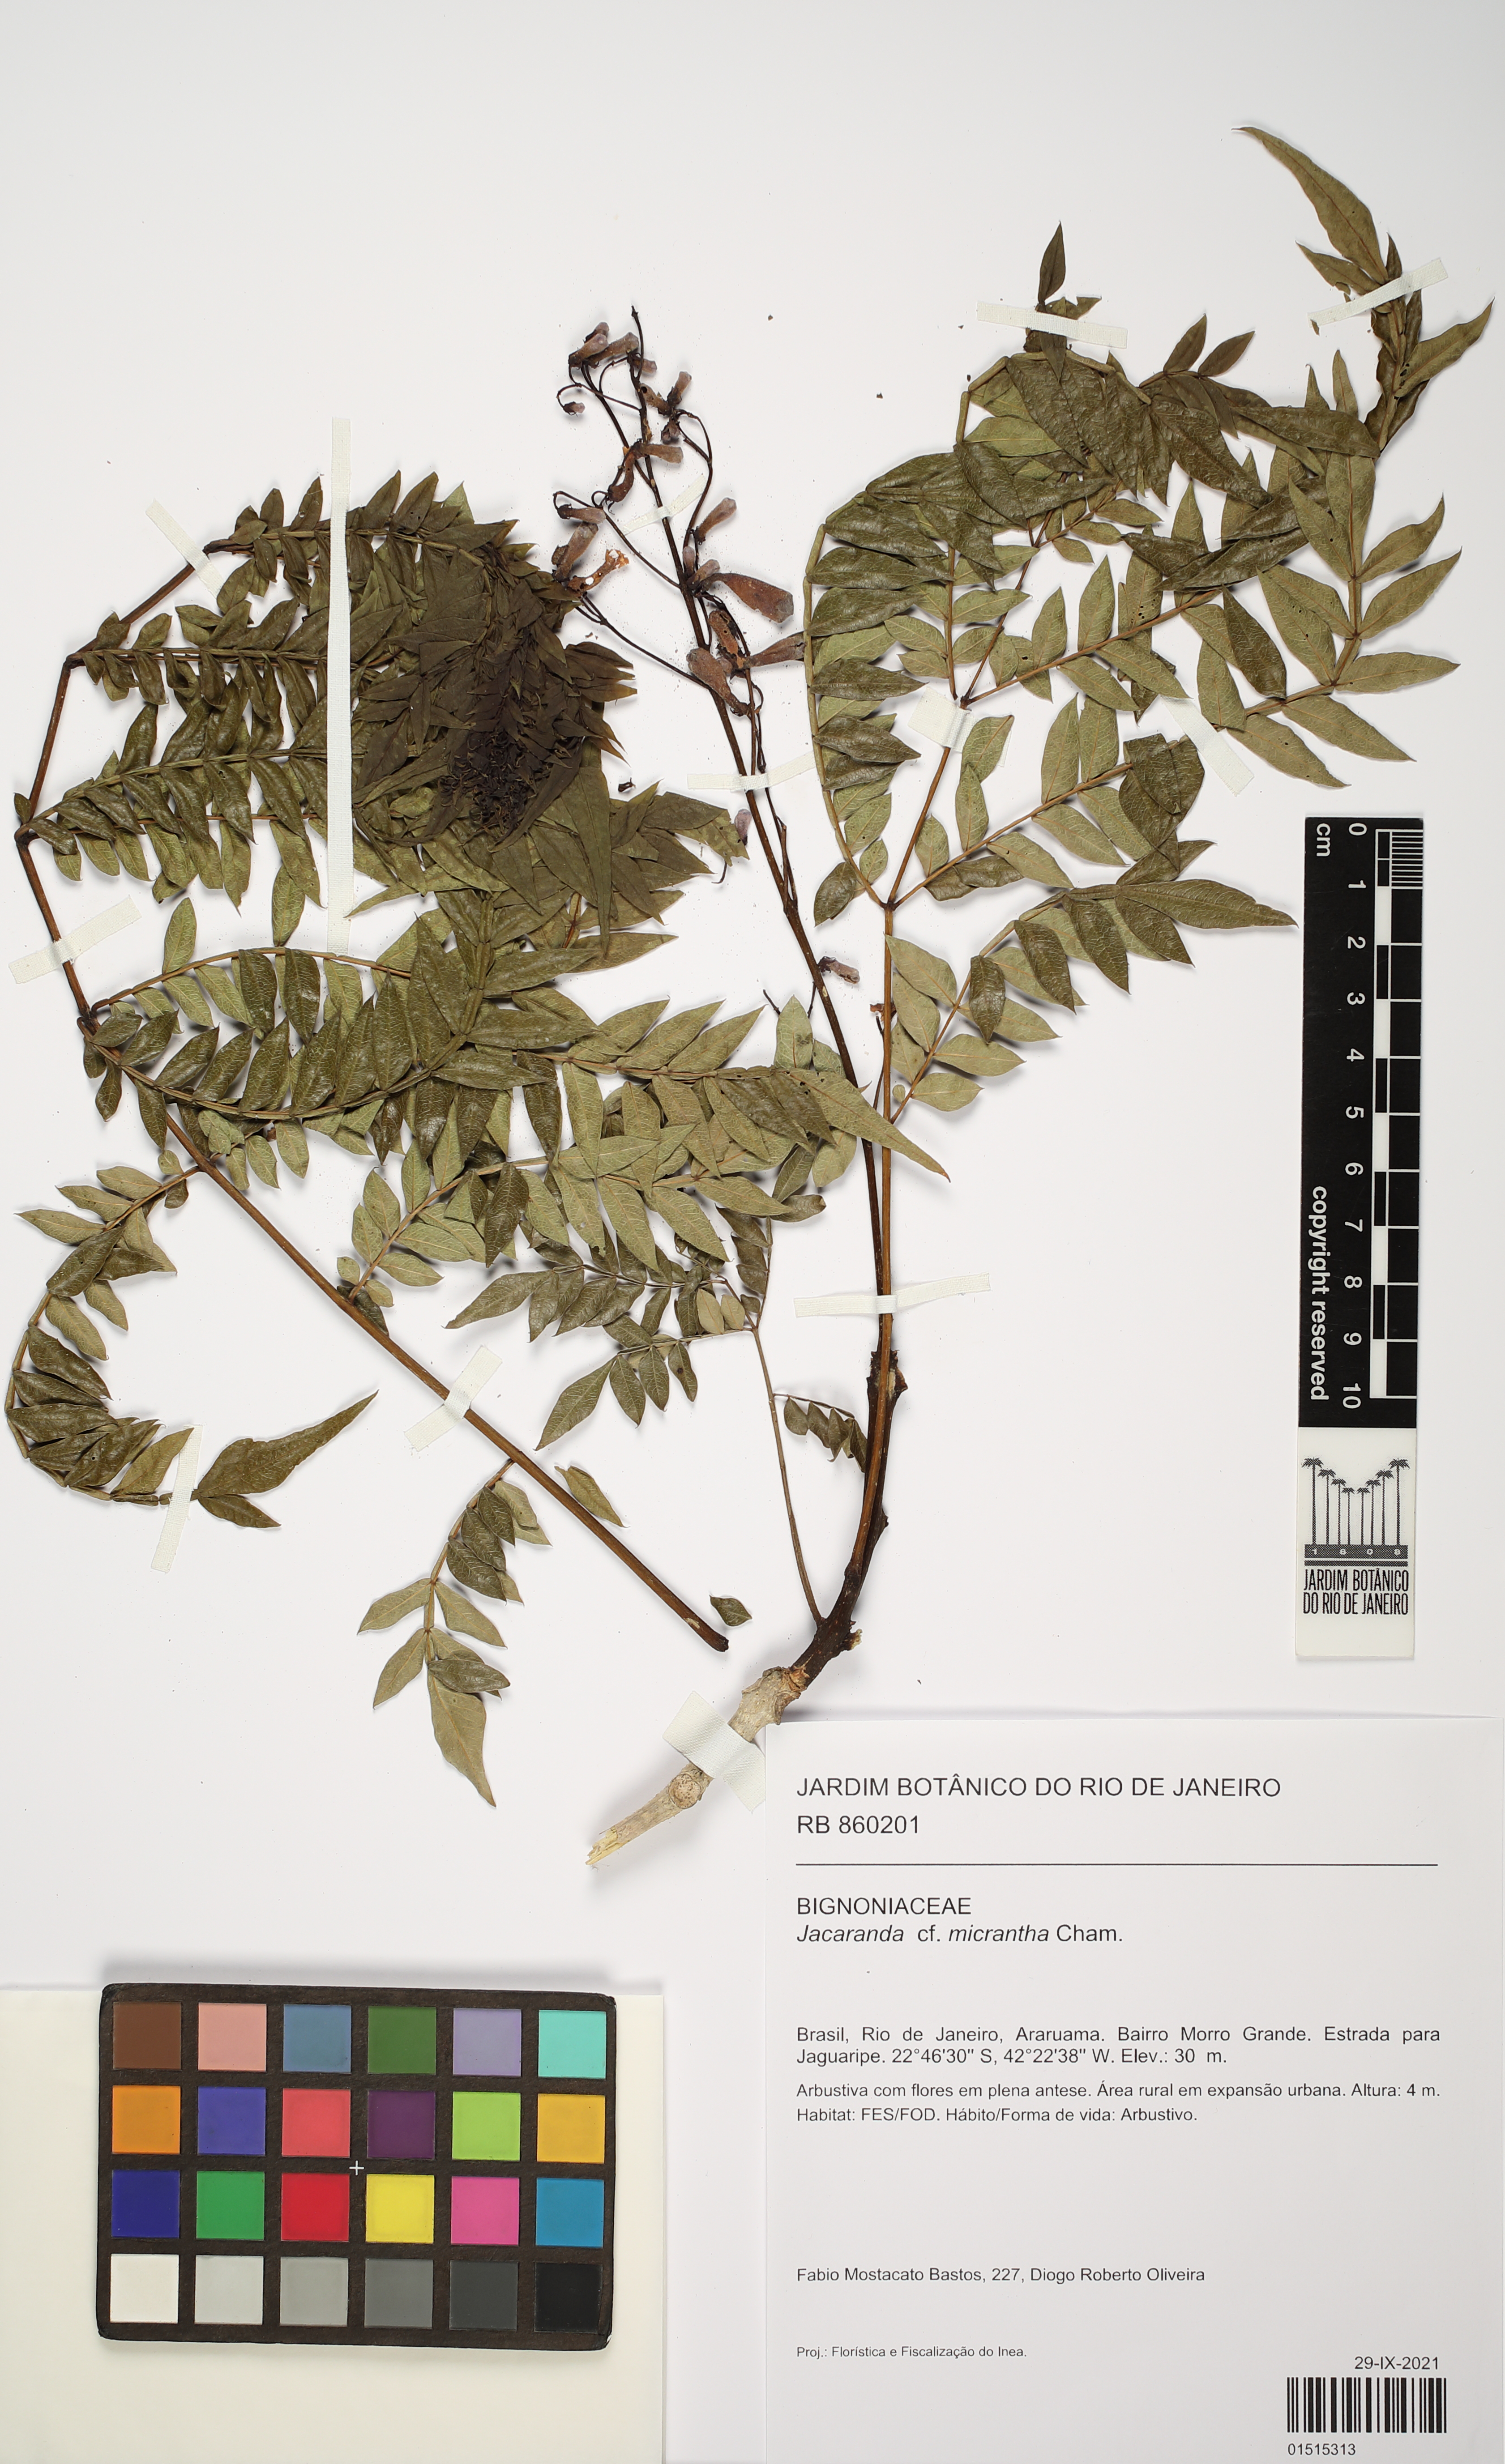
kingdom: Plantae
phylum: Tracheophyta
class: Magnoliopsida
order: Lamiales
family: Bignoniaceae
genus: Jacaranda
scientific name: Jacaranda micrantha
